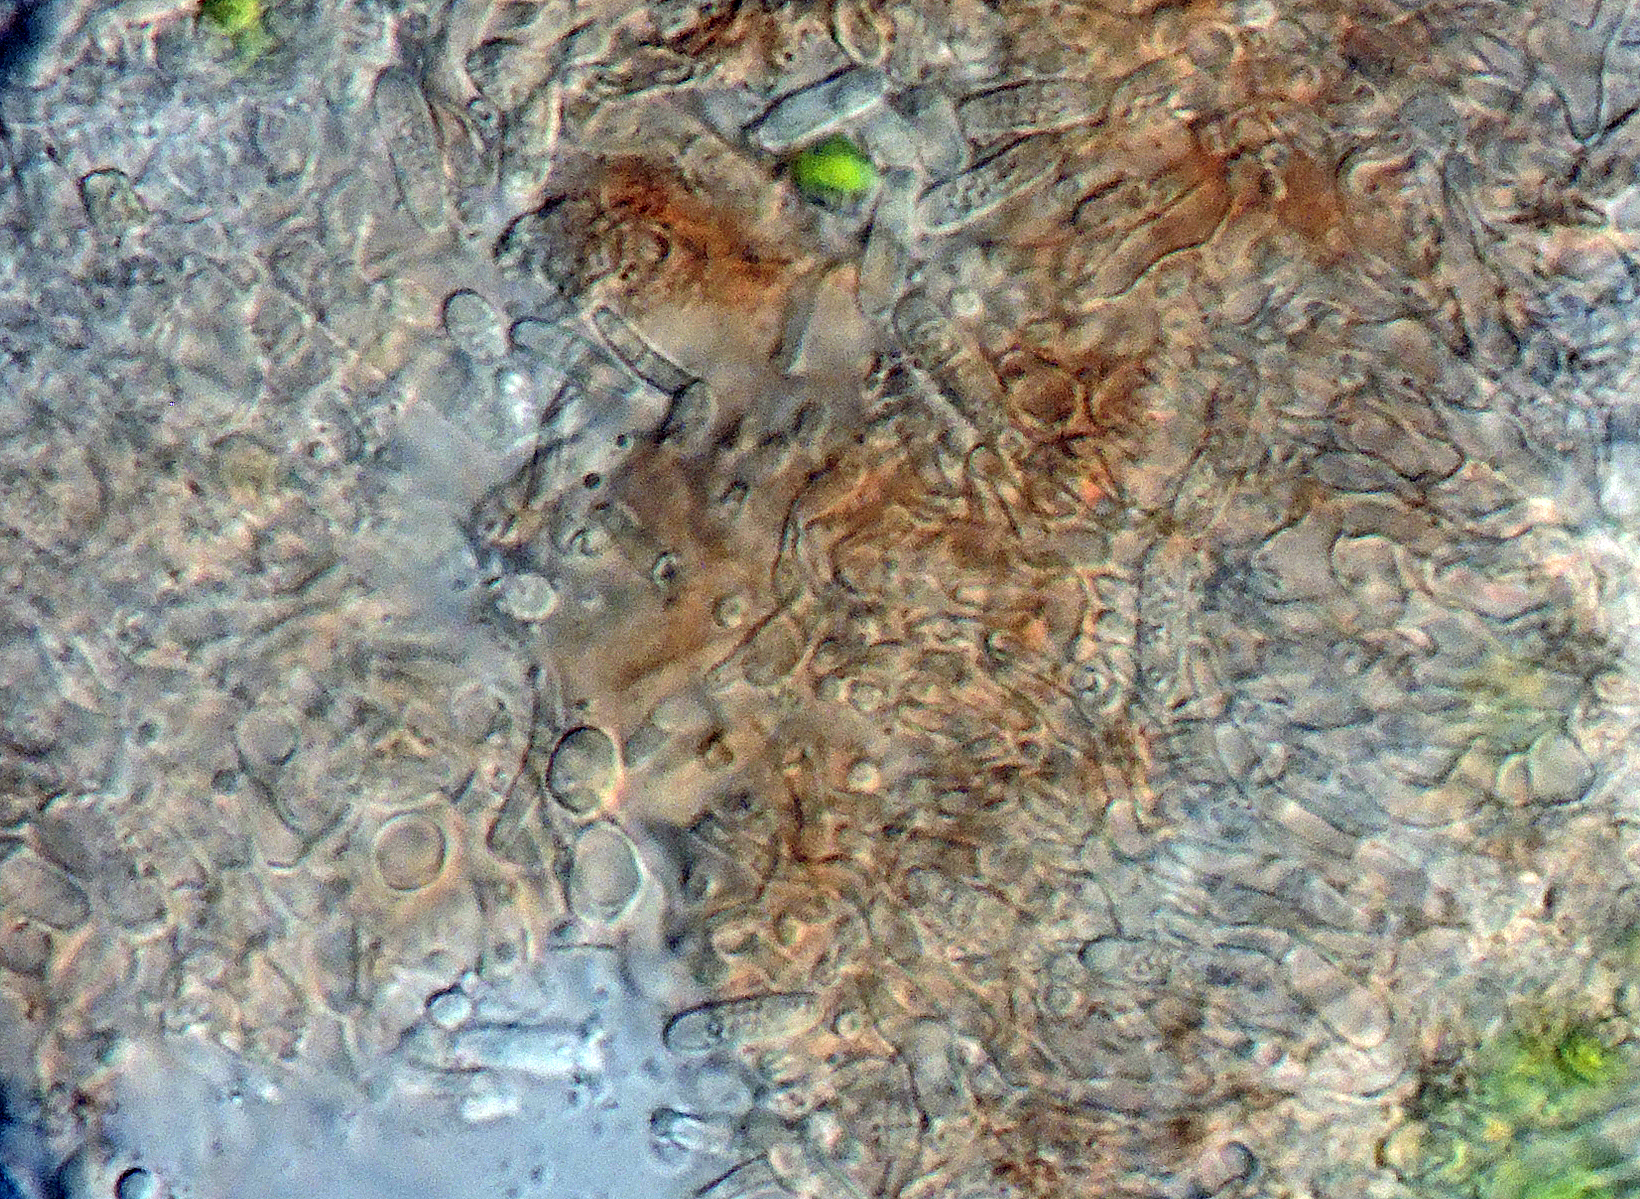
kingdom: Fungi
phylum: Ascomycota
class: Leotiomycetes
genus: Epicladonia
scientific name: Epicladonia sandstedei
